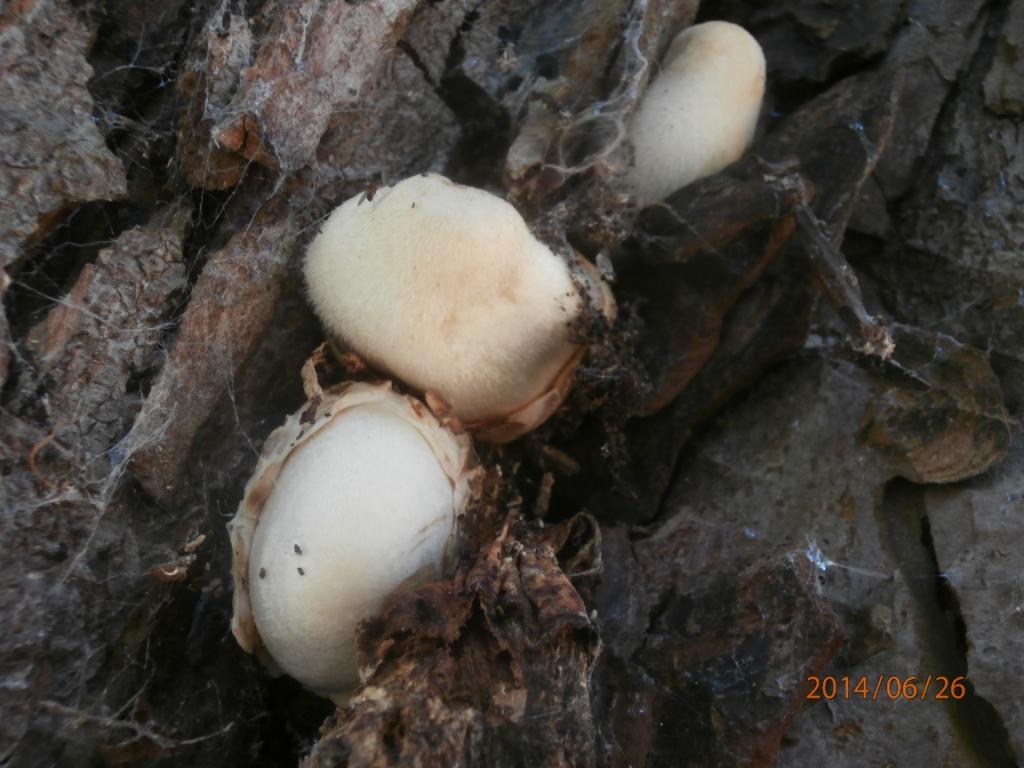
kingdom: Fungi
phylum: Basidiomycota
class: Agaricomycetes
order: Agaricales
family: Pluteaceae
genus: Volvariella
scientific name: Volvariella bombycina
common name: silkehåret posesvamp
